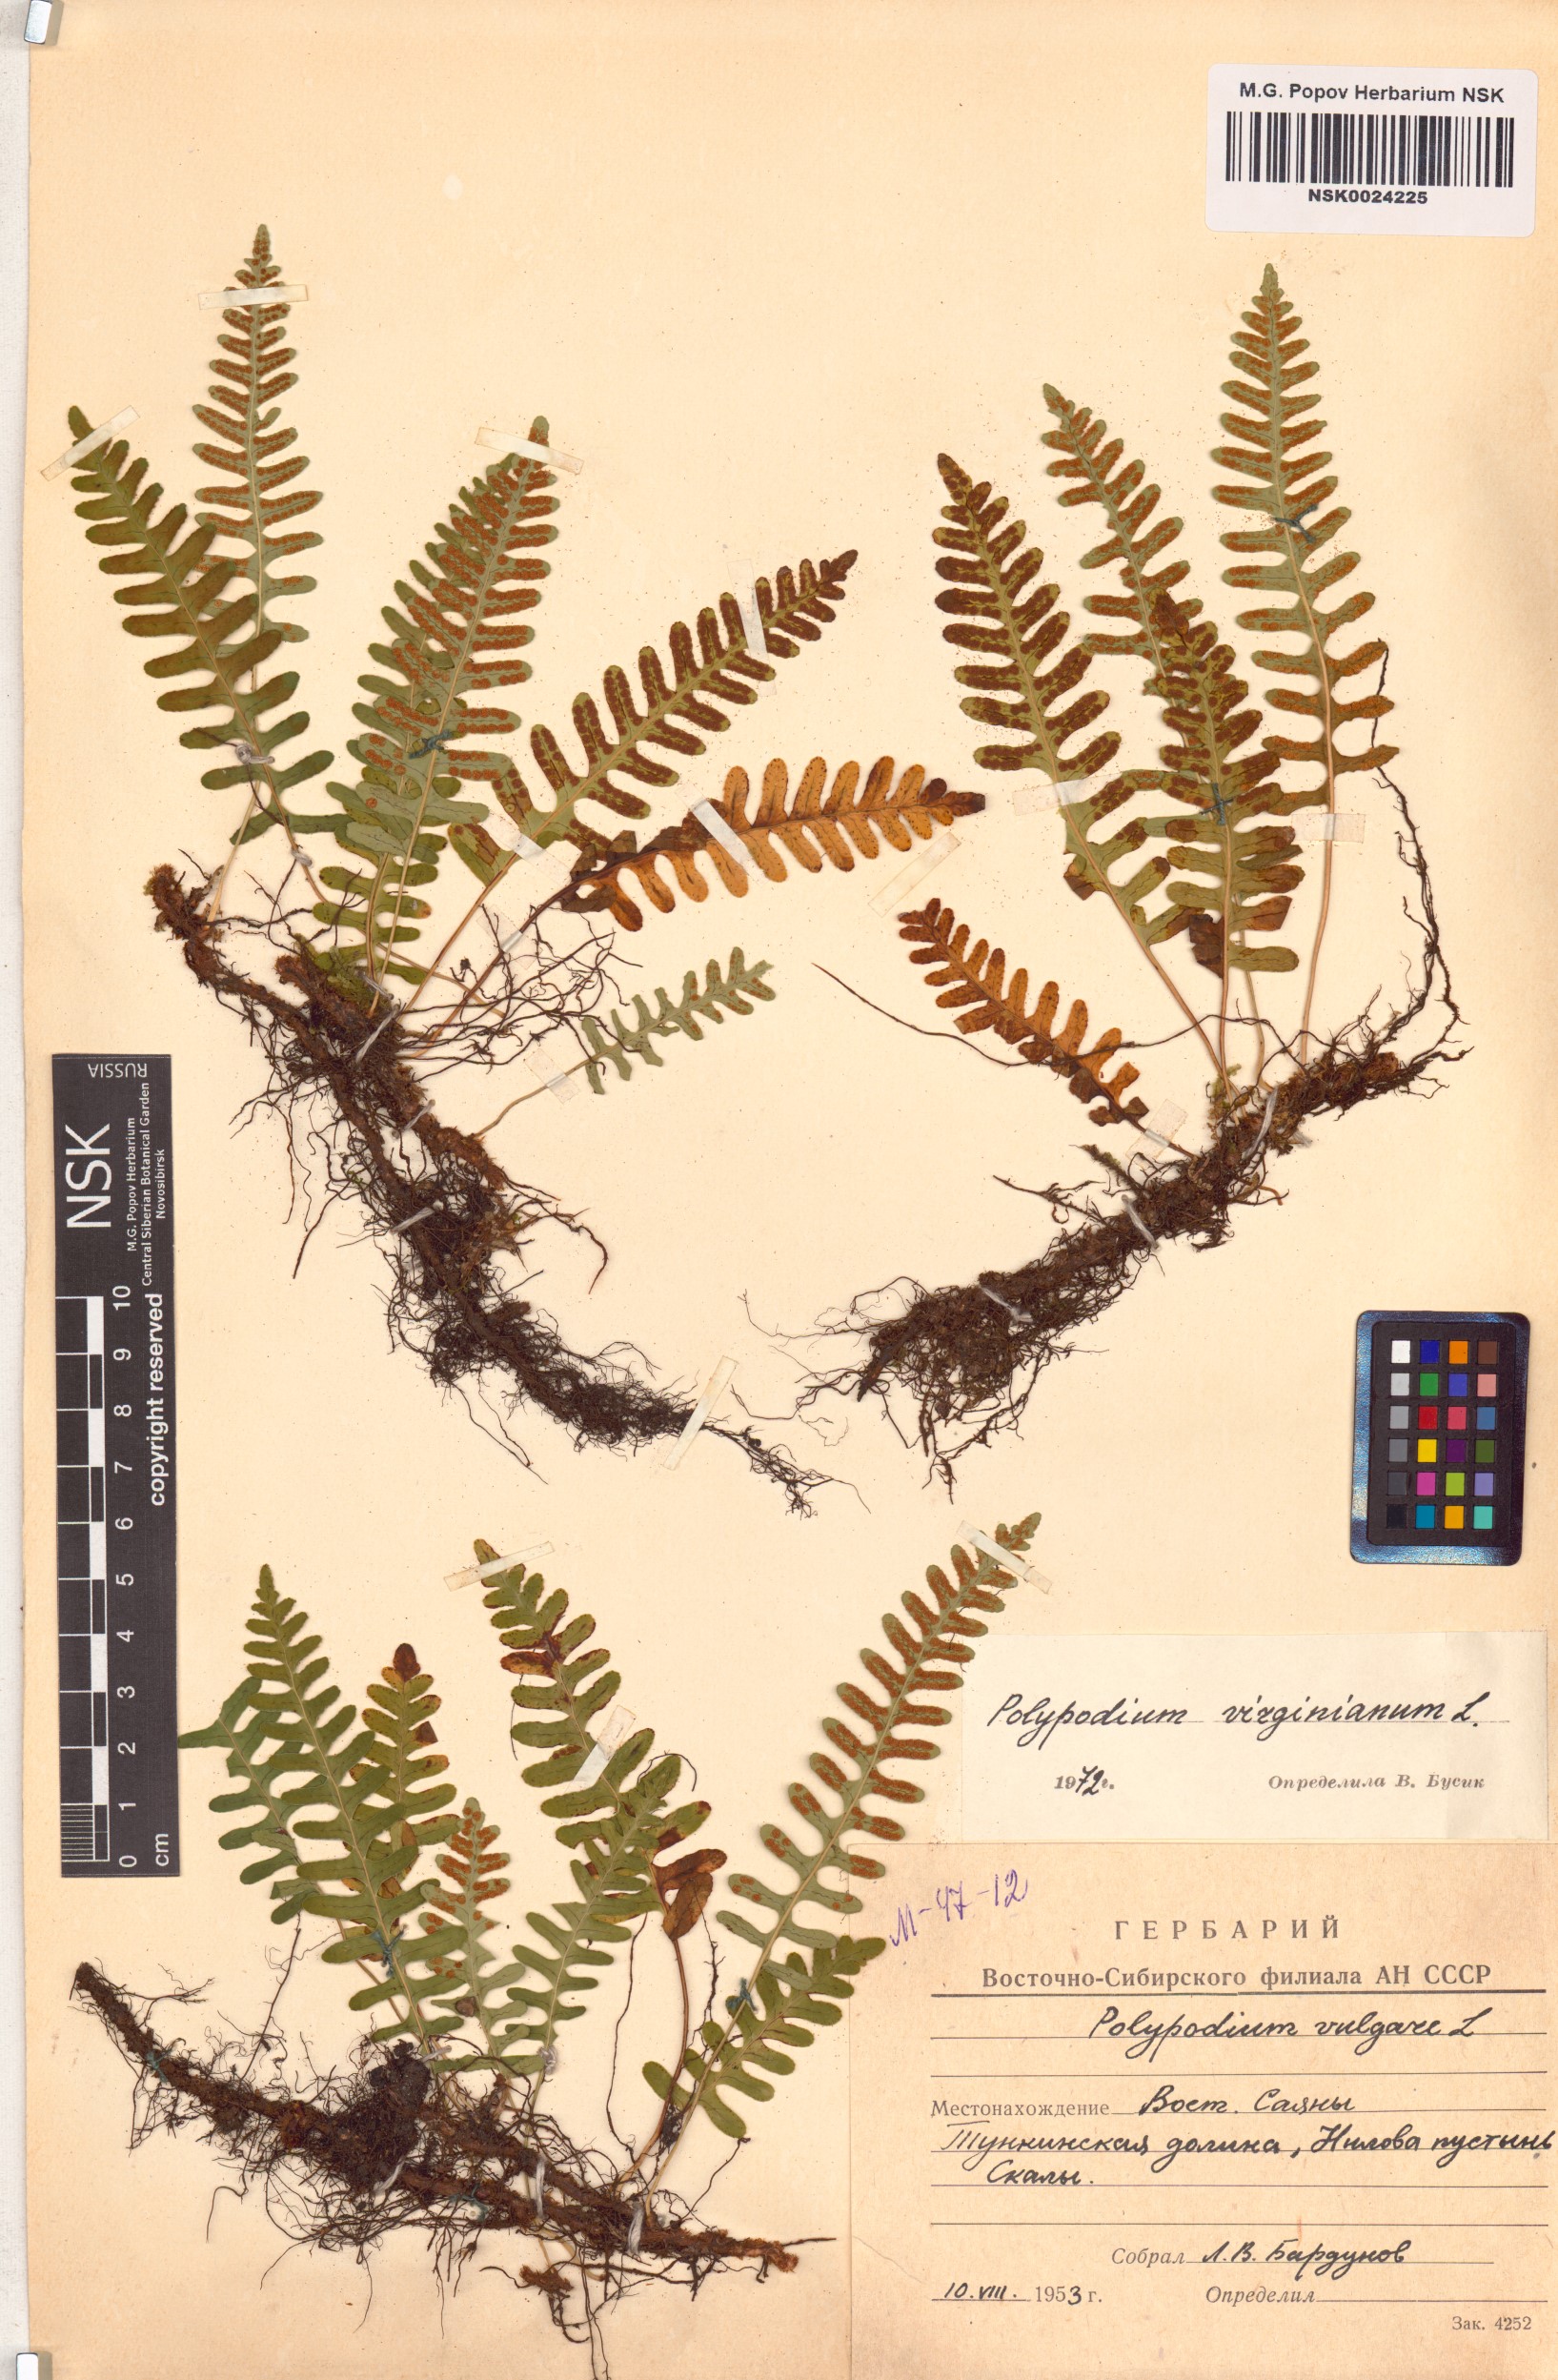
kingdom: Plantae
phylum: Tracheophyta
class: Polypodiopsida
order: Polypodiales
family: Polypodiaceae
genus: Polypodium
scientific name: Polypodium virginianum
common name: American wall fern
